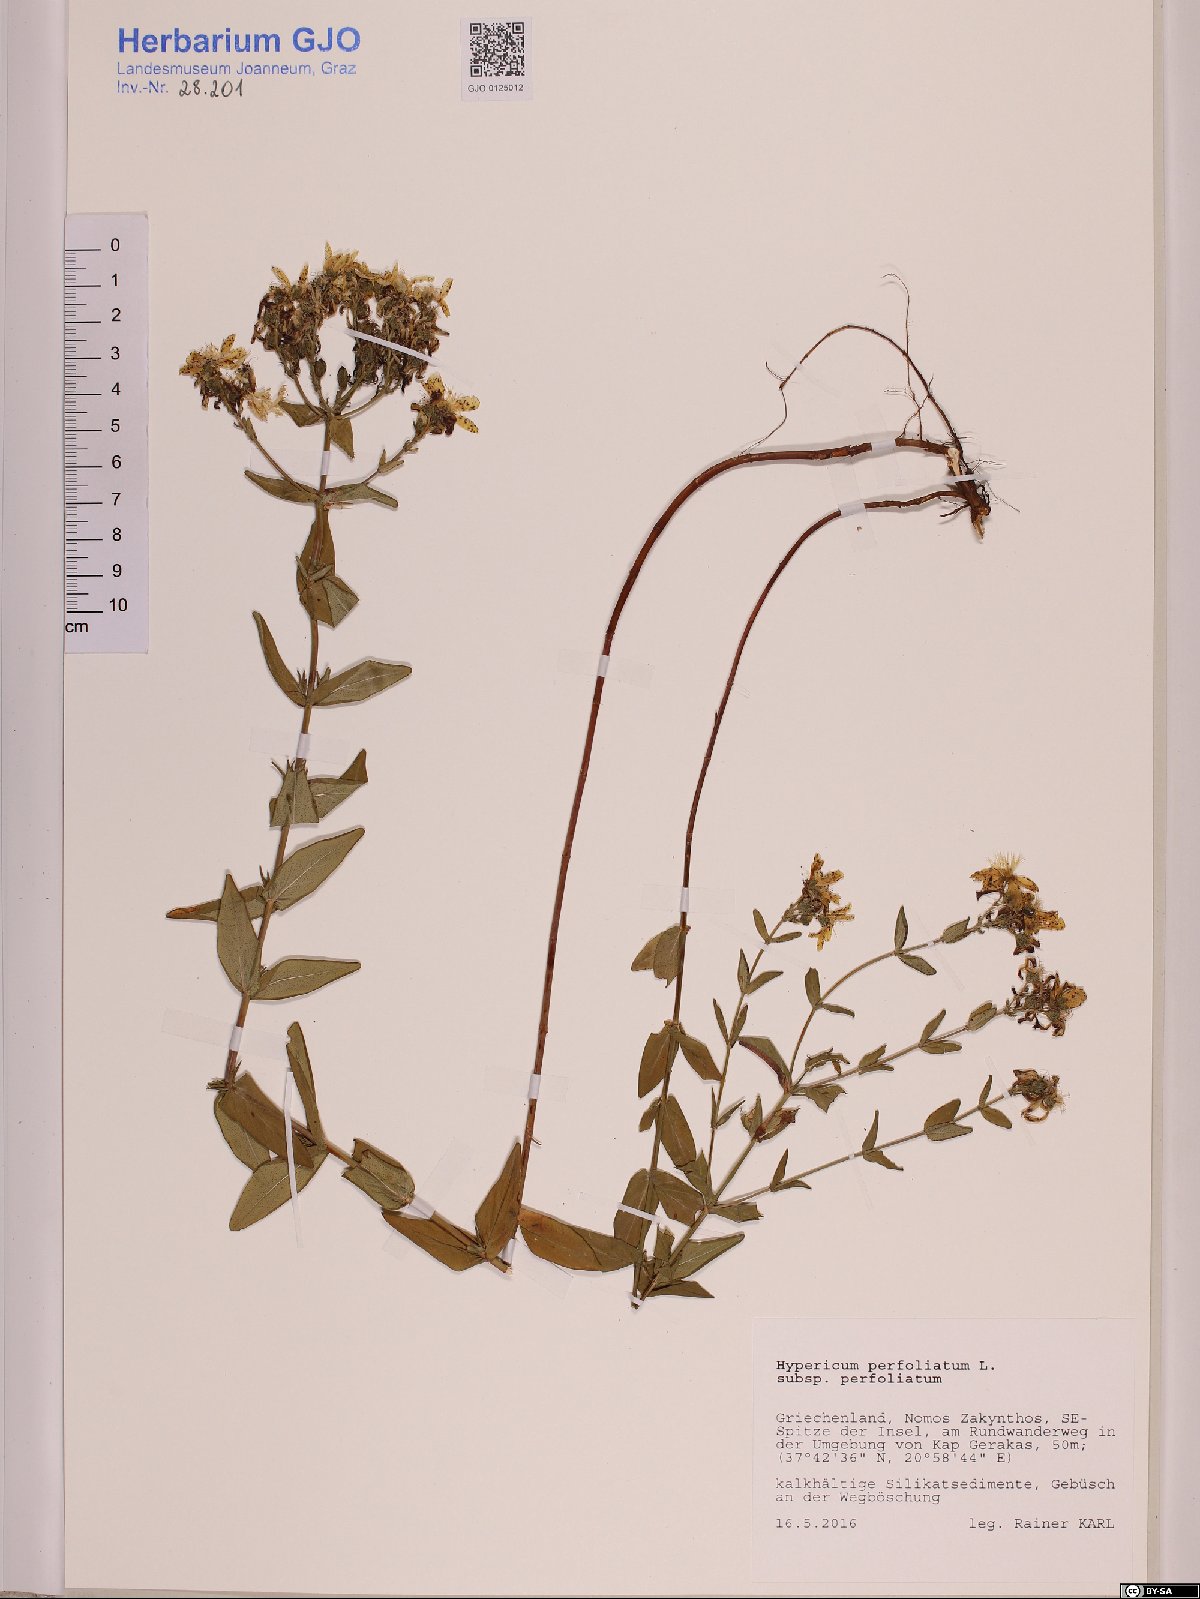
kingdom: Plantae
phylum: Tracheophyta
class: Magnoliopsida
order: Malpighiales
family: Hypericaceae
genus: Hypericum
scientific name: Hypericum perfoliatum
